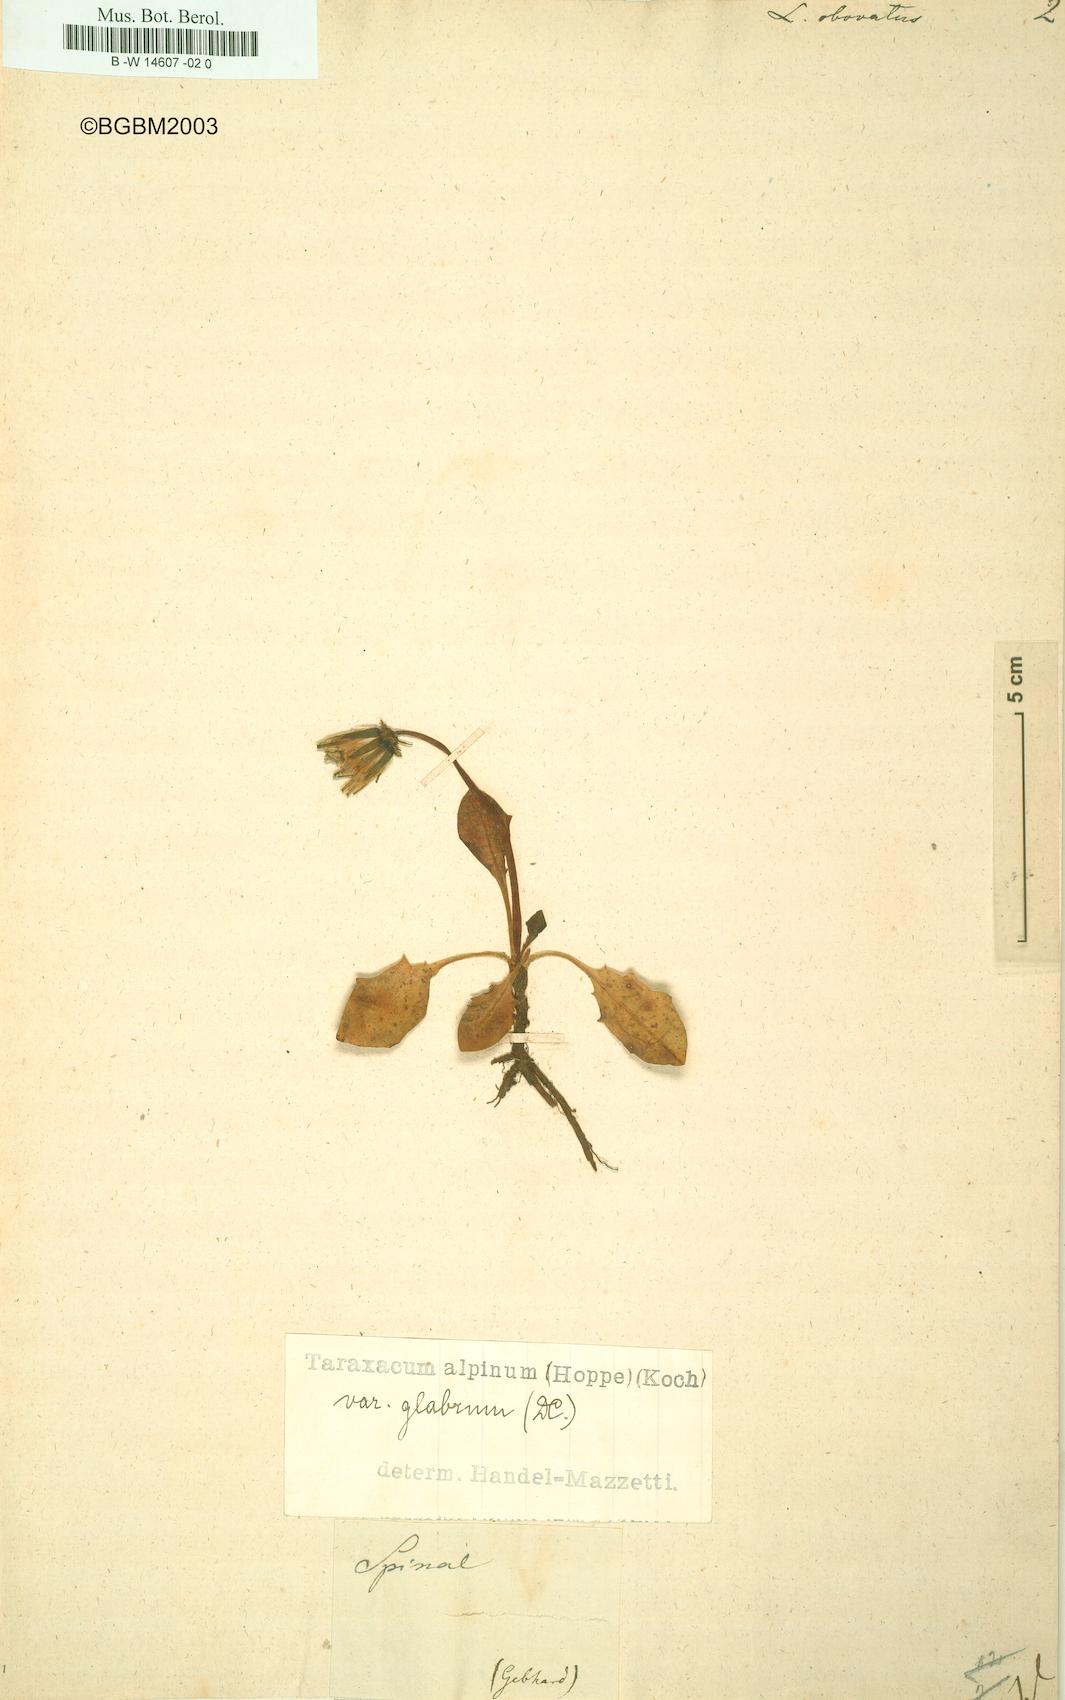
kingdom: Plantae
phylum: Tracheophyta
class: Magnoliopsida
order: Asterales
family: Asteraceae
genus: Taraxacum
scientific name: Taraxacum obovatum
